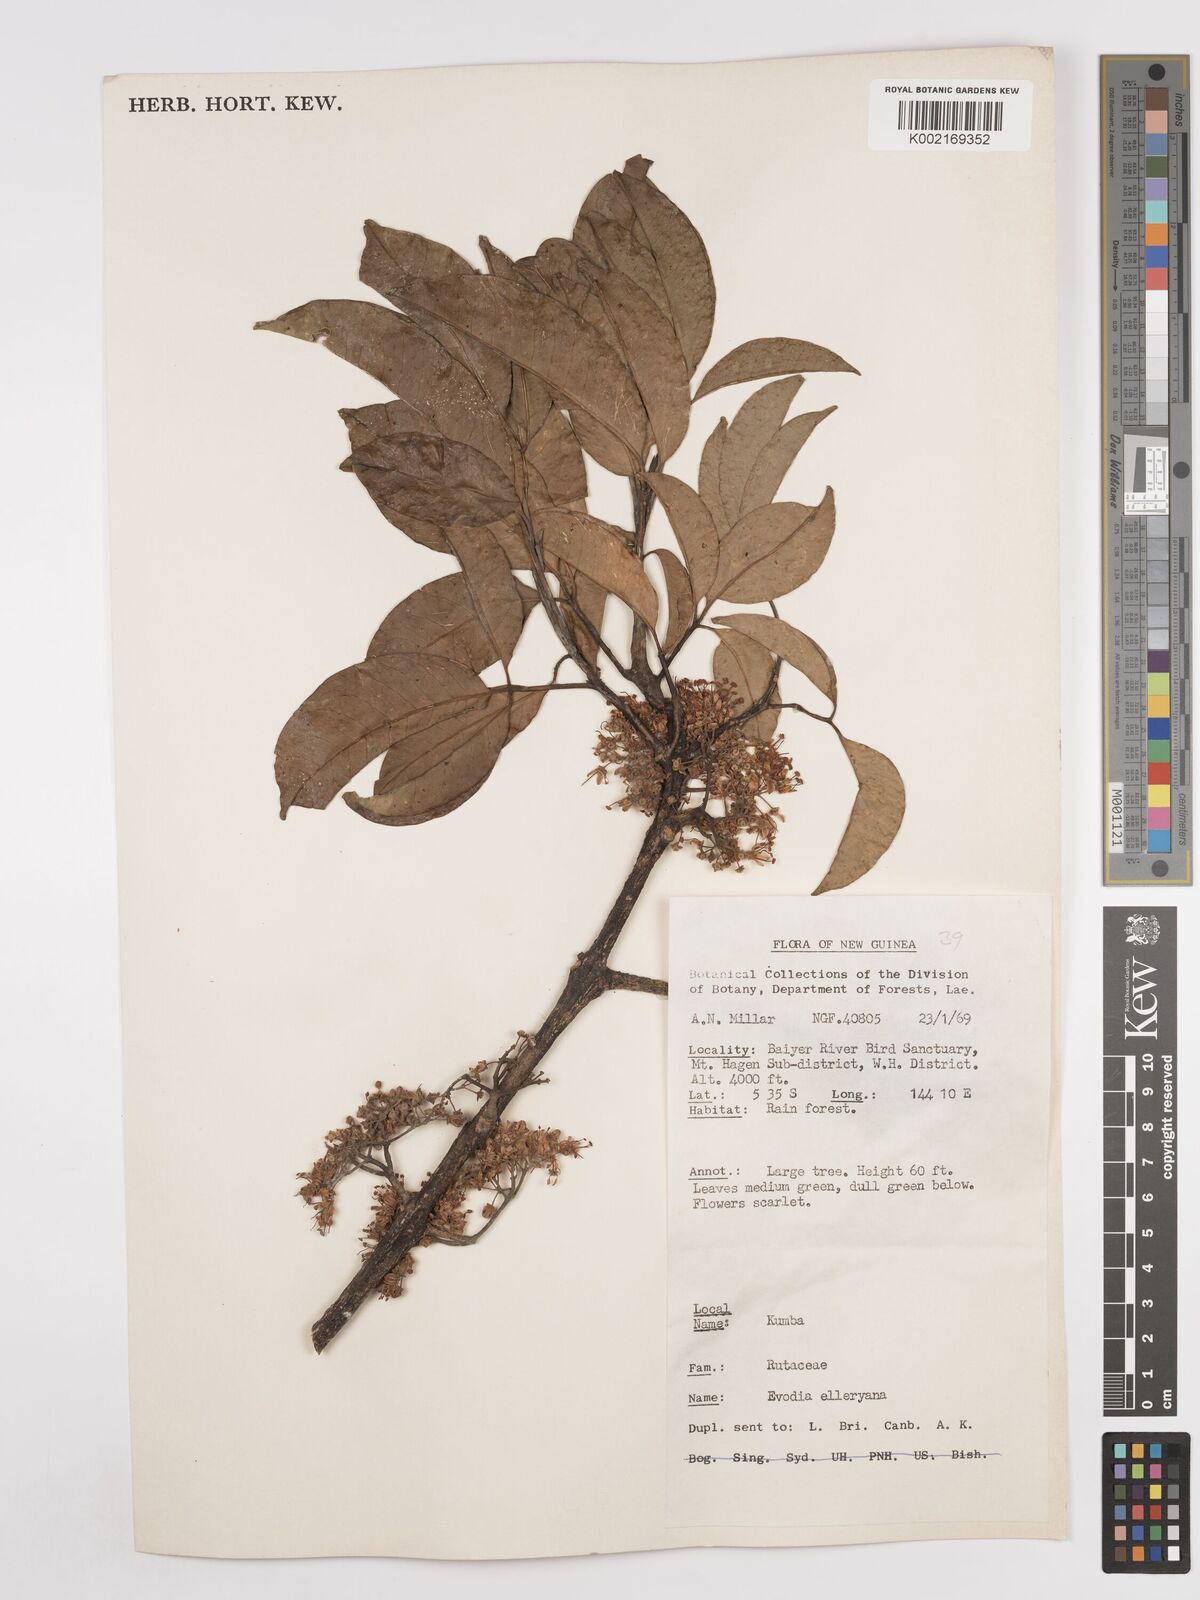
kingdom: Plantae
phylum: Tracheophyta
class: Magnoliopsida
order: Sapindales
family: Rutaceae
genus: Melicope
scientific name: Melicope elleryana
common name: Pink euodia
